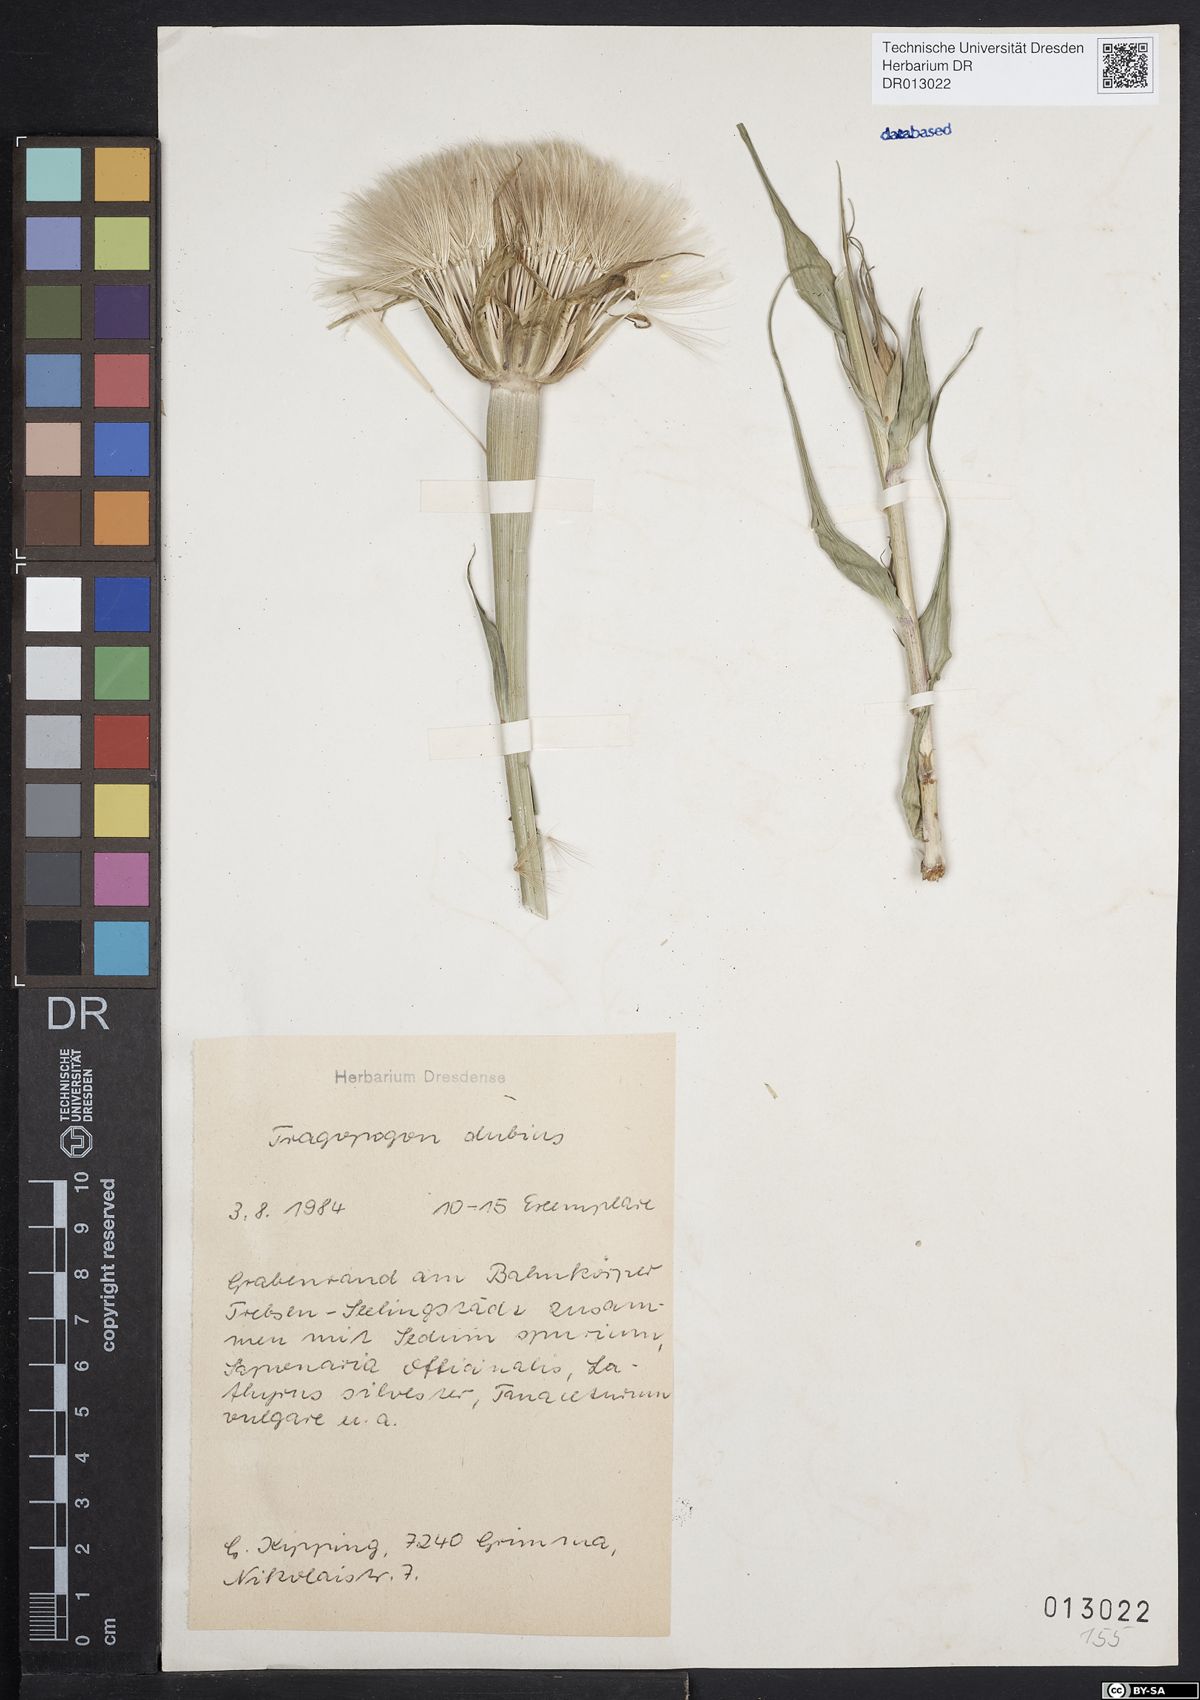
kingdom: Plantae
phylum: Tracheophyta
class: Magnoliopsida
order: Asterales
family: Asteraceae
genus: Tragopogon
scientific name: Tragopogon dubius
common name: Yellow salsify
